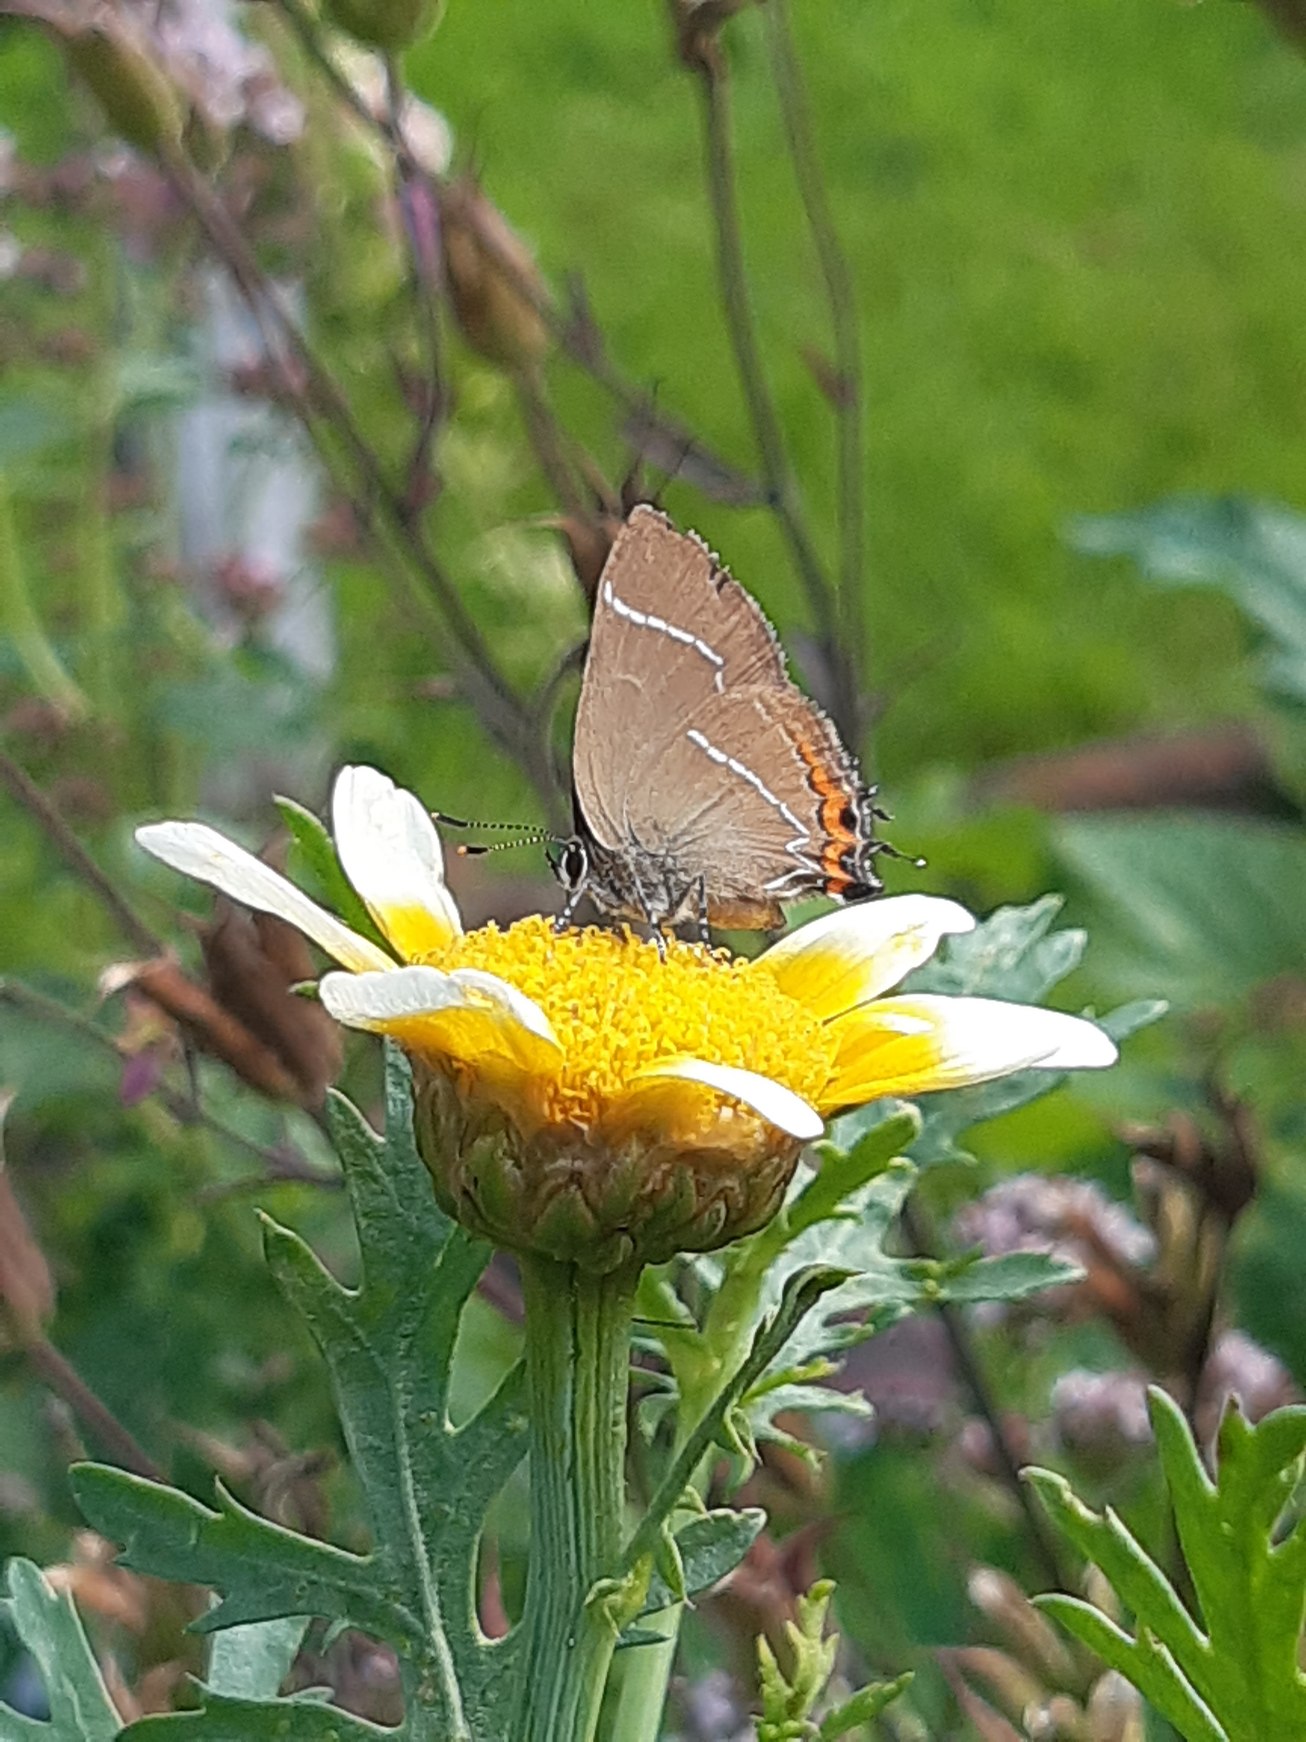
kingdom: Animalia
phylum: Arthropoda
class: Insecta
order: Lepidoptera
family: Lycaenidae
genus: Satyrium
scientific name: Satyrium w-album
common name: Det hvide W
